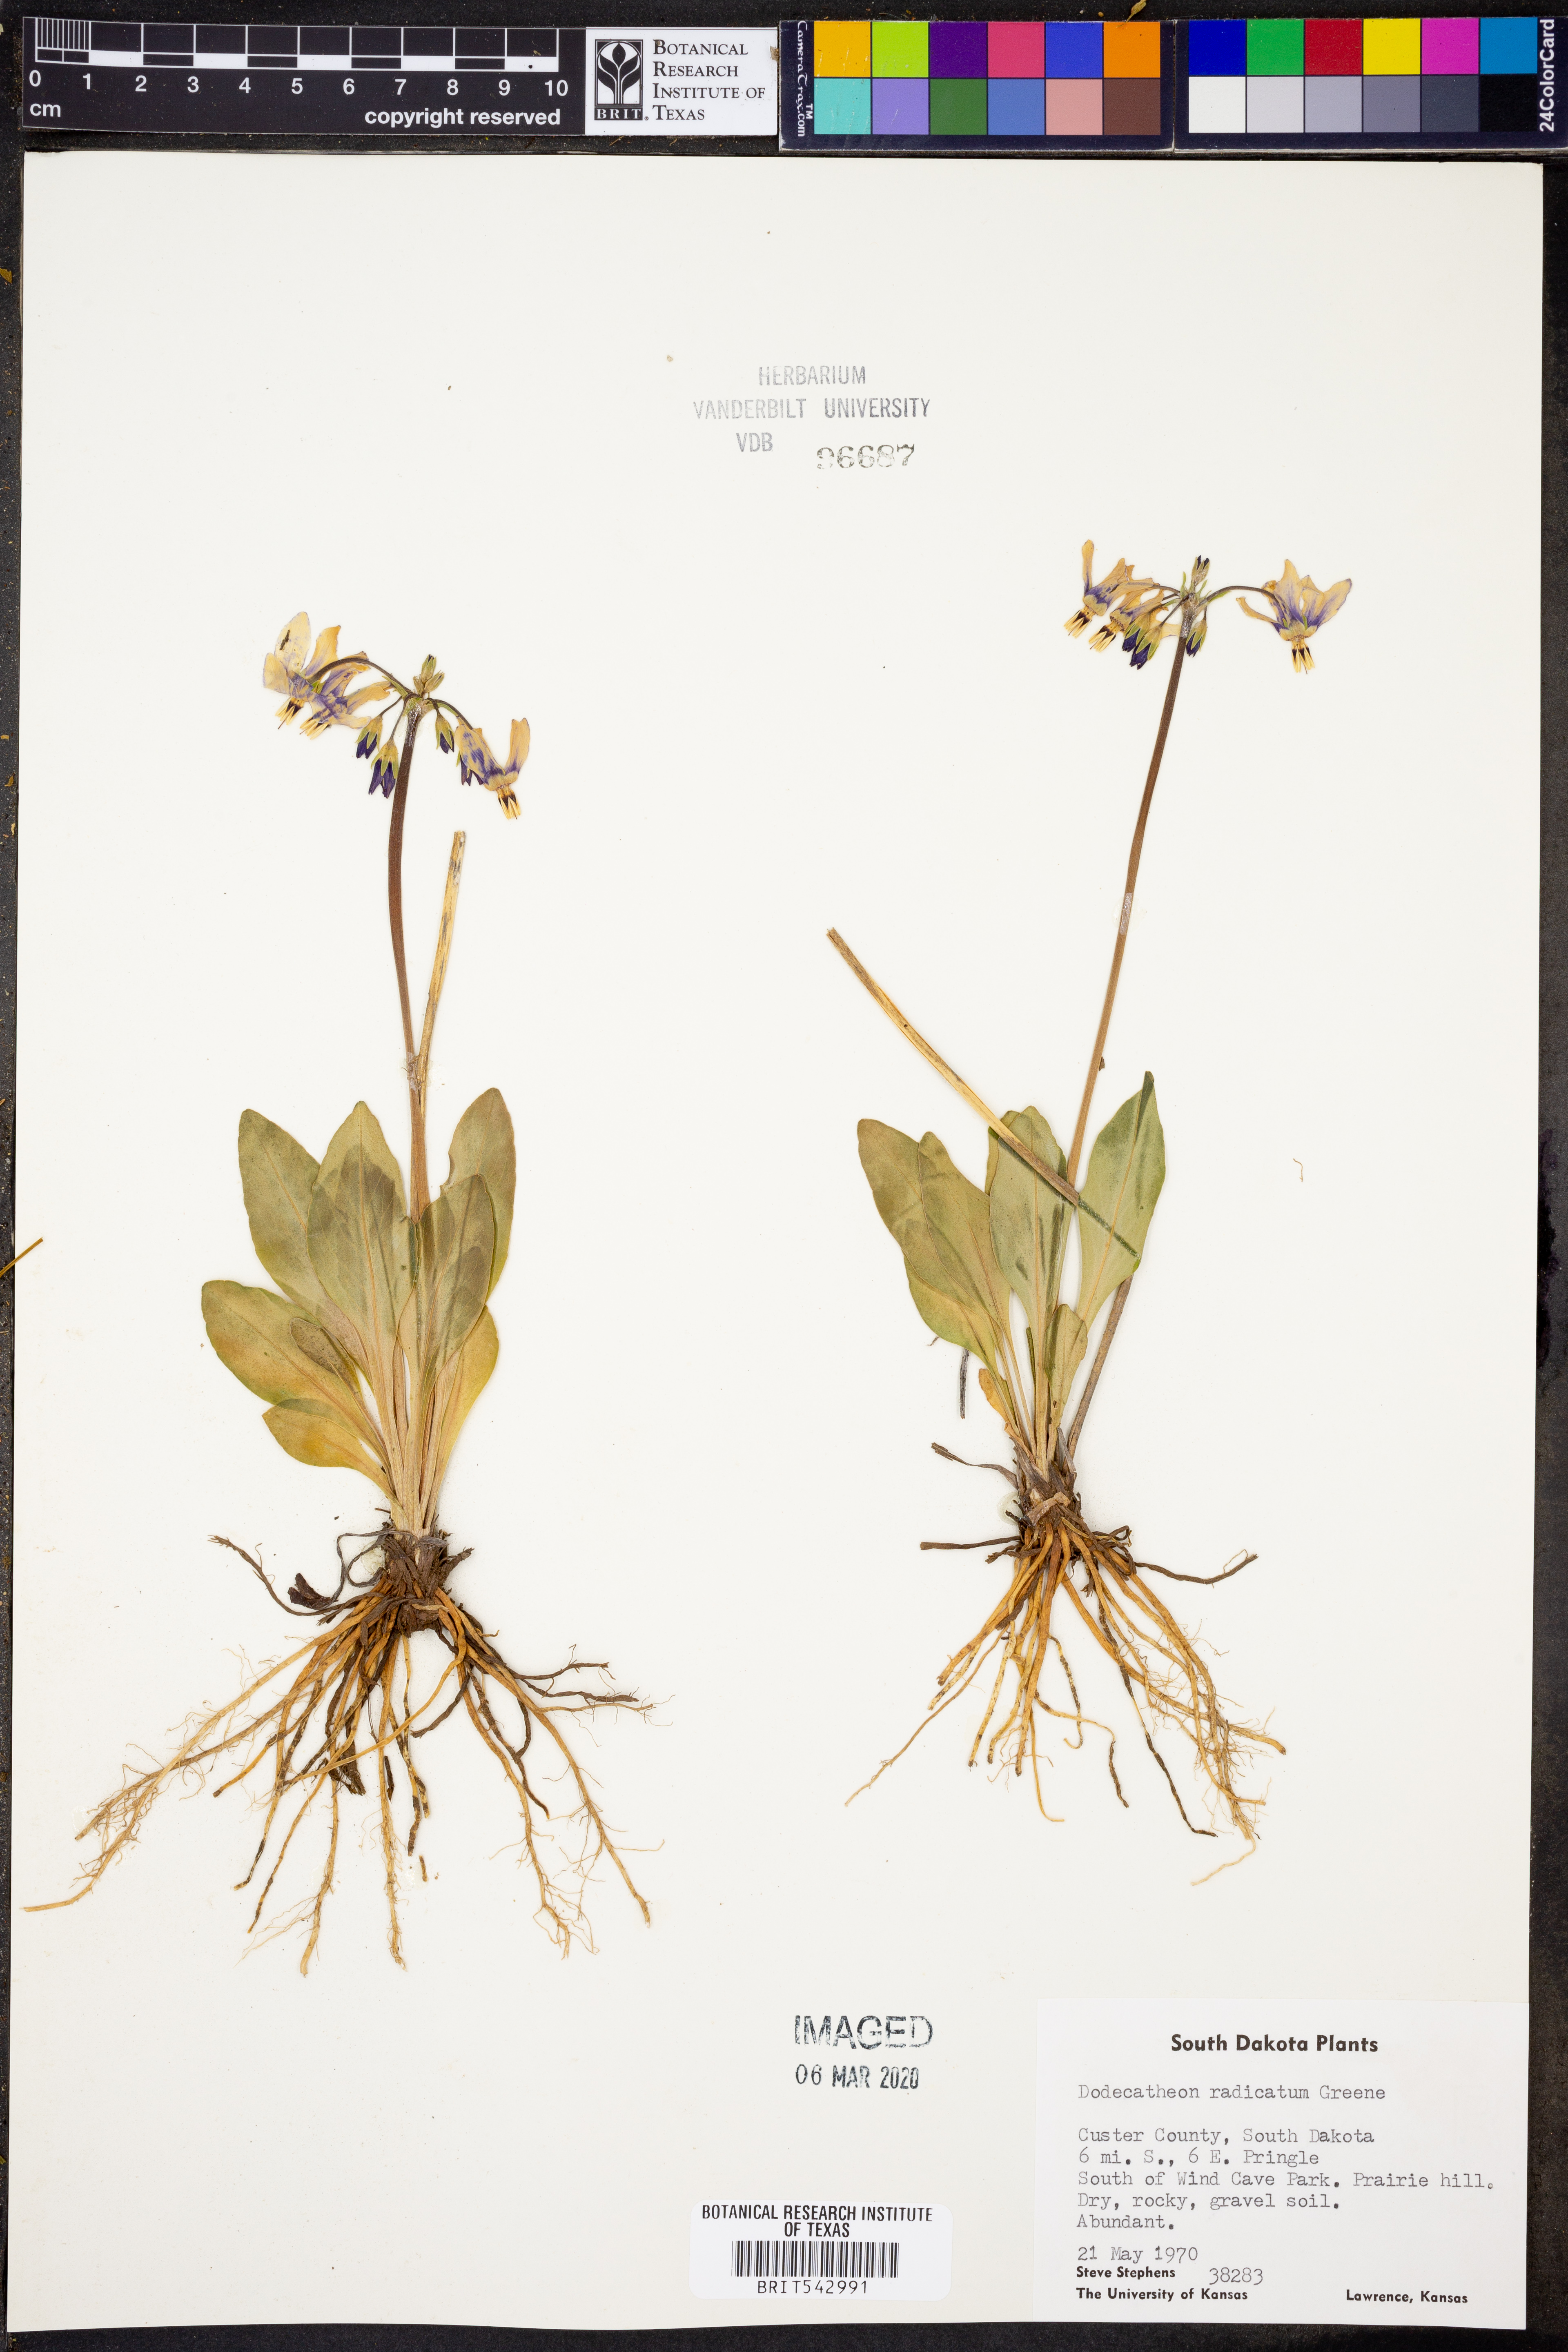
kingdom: Plantae
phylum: Tracheophyta
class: Magnoliopsida
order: Ericales
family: Primulaceae
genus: Dodecatheon
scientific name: Dodecatheon pulchellum
